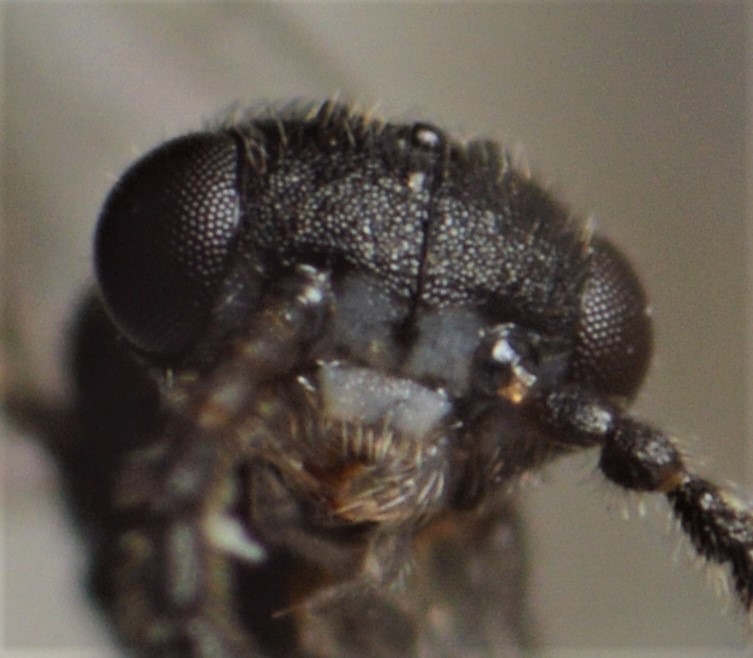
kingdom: Animalia
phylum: Arthropoda
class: Insecta
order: Hymenoptera
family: Dryinidae
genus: Aphelopus
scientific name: Aphelopus melaleucus
